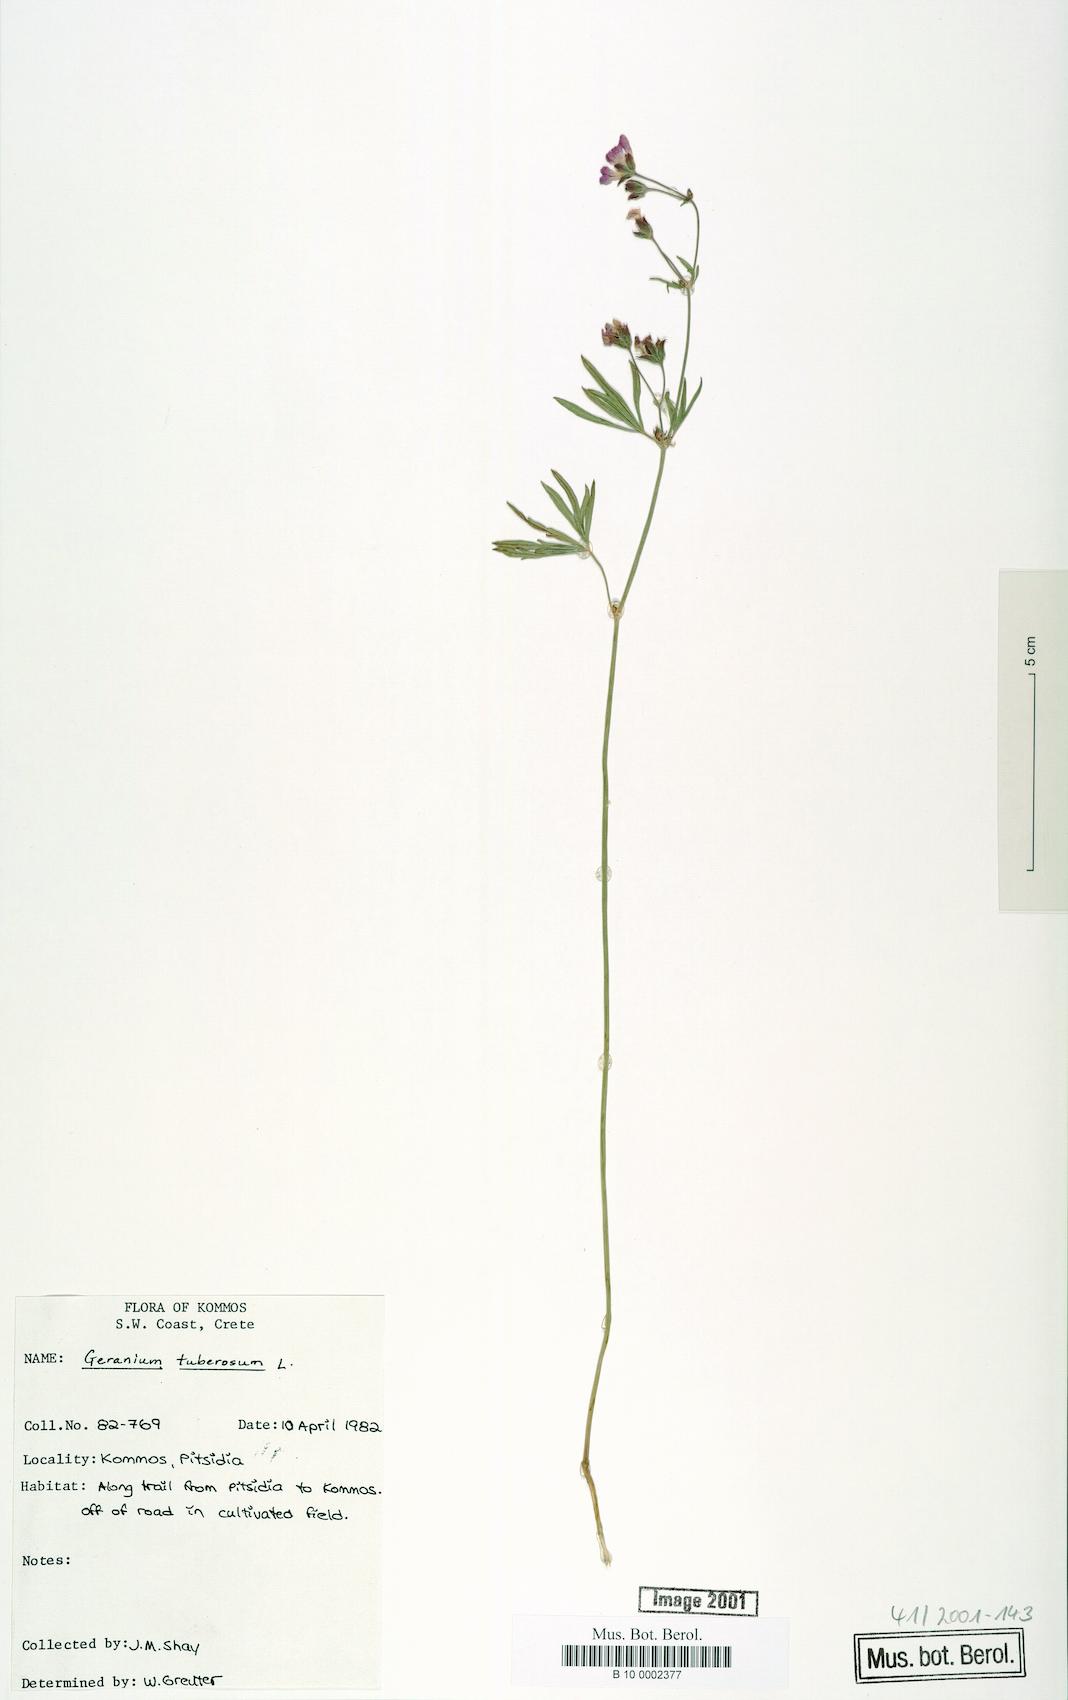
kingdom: Plantae
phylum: Tracheophyta
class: Magnoliopsida
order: Geraniales
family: Geraniaceae
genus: Geranium
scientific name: Geranium tuberosum
